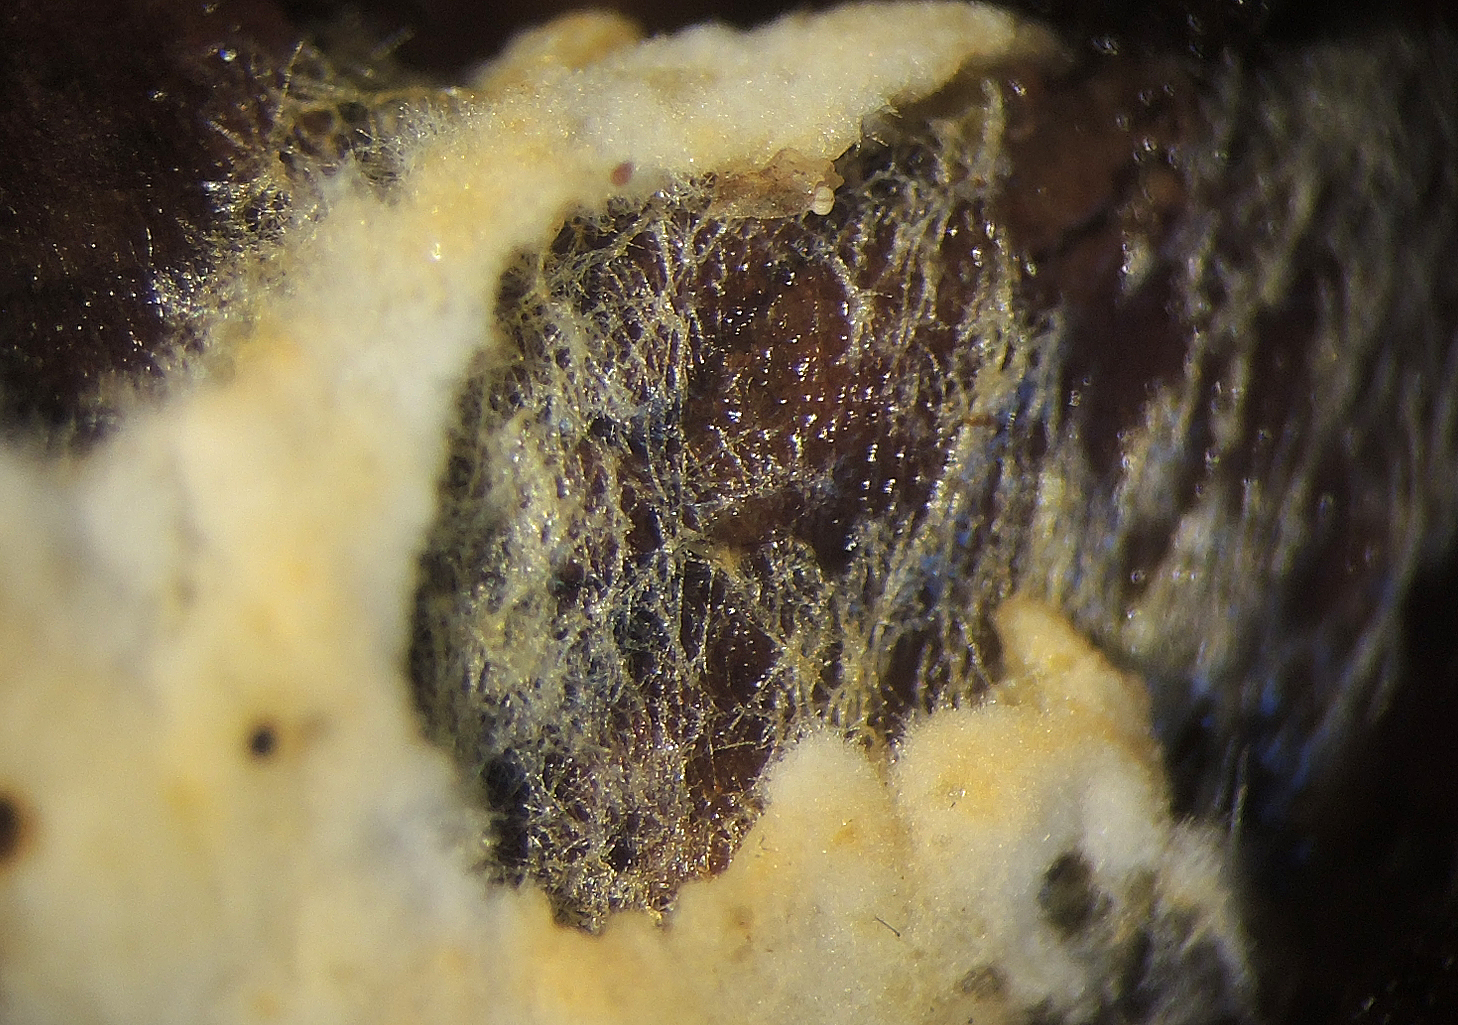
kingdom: Fungi
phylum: Basidiomycota
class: Agaricomycetes
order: Agaricales
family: Stephanosporaceae
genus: Lindtneria
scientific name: Lindtneria
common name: citrushinde
